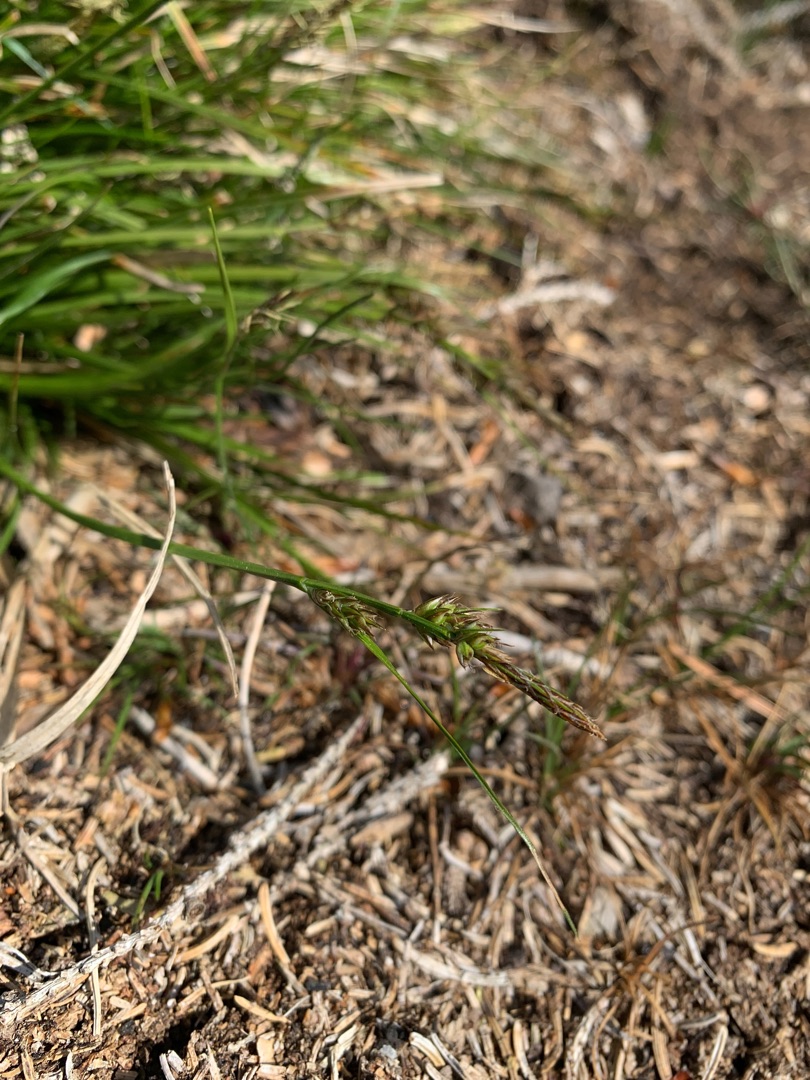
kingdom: Plantae
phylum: Tracheophyta
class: Liliopsida
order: Poales
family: Cyperaceae
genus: Carex
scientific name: Carex pilulifera
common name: Pille-star
